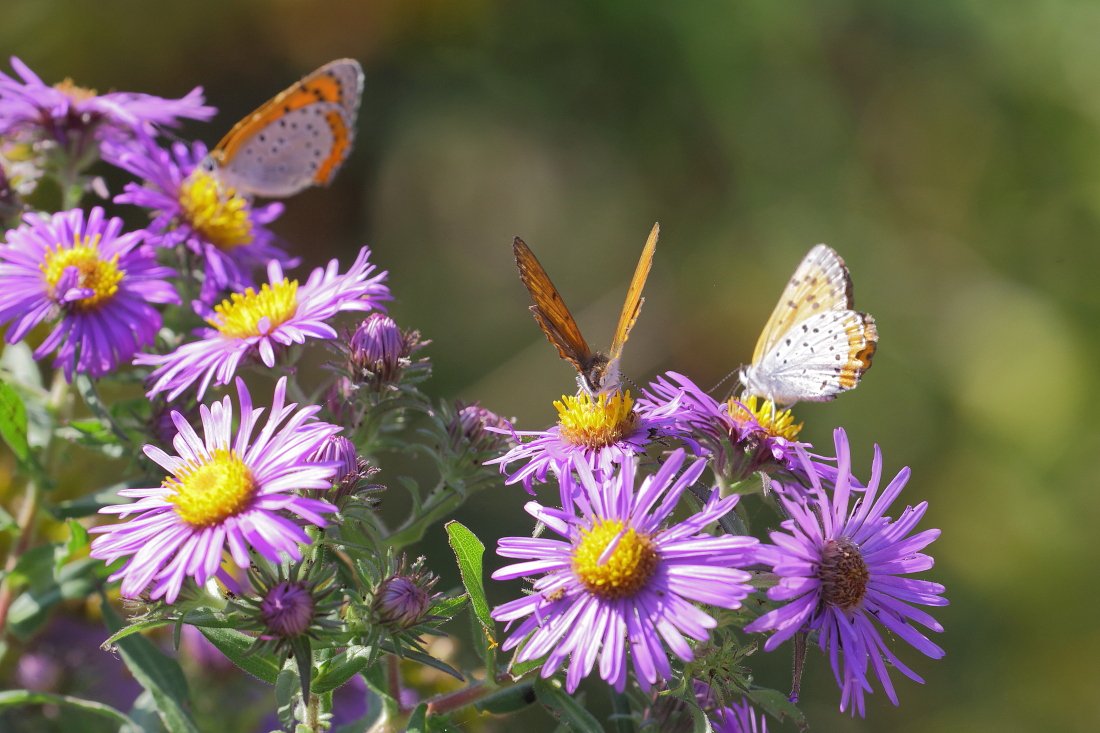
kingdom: Animalia
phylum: Arthropoda
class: Insecta
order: Lepidoptera
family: Sesiidae
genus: Sesia
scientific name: Sesia Lycaena hyllus
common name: Bronze Copper
